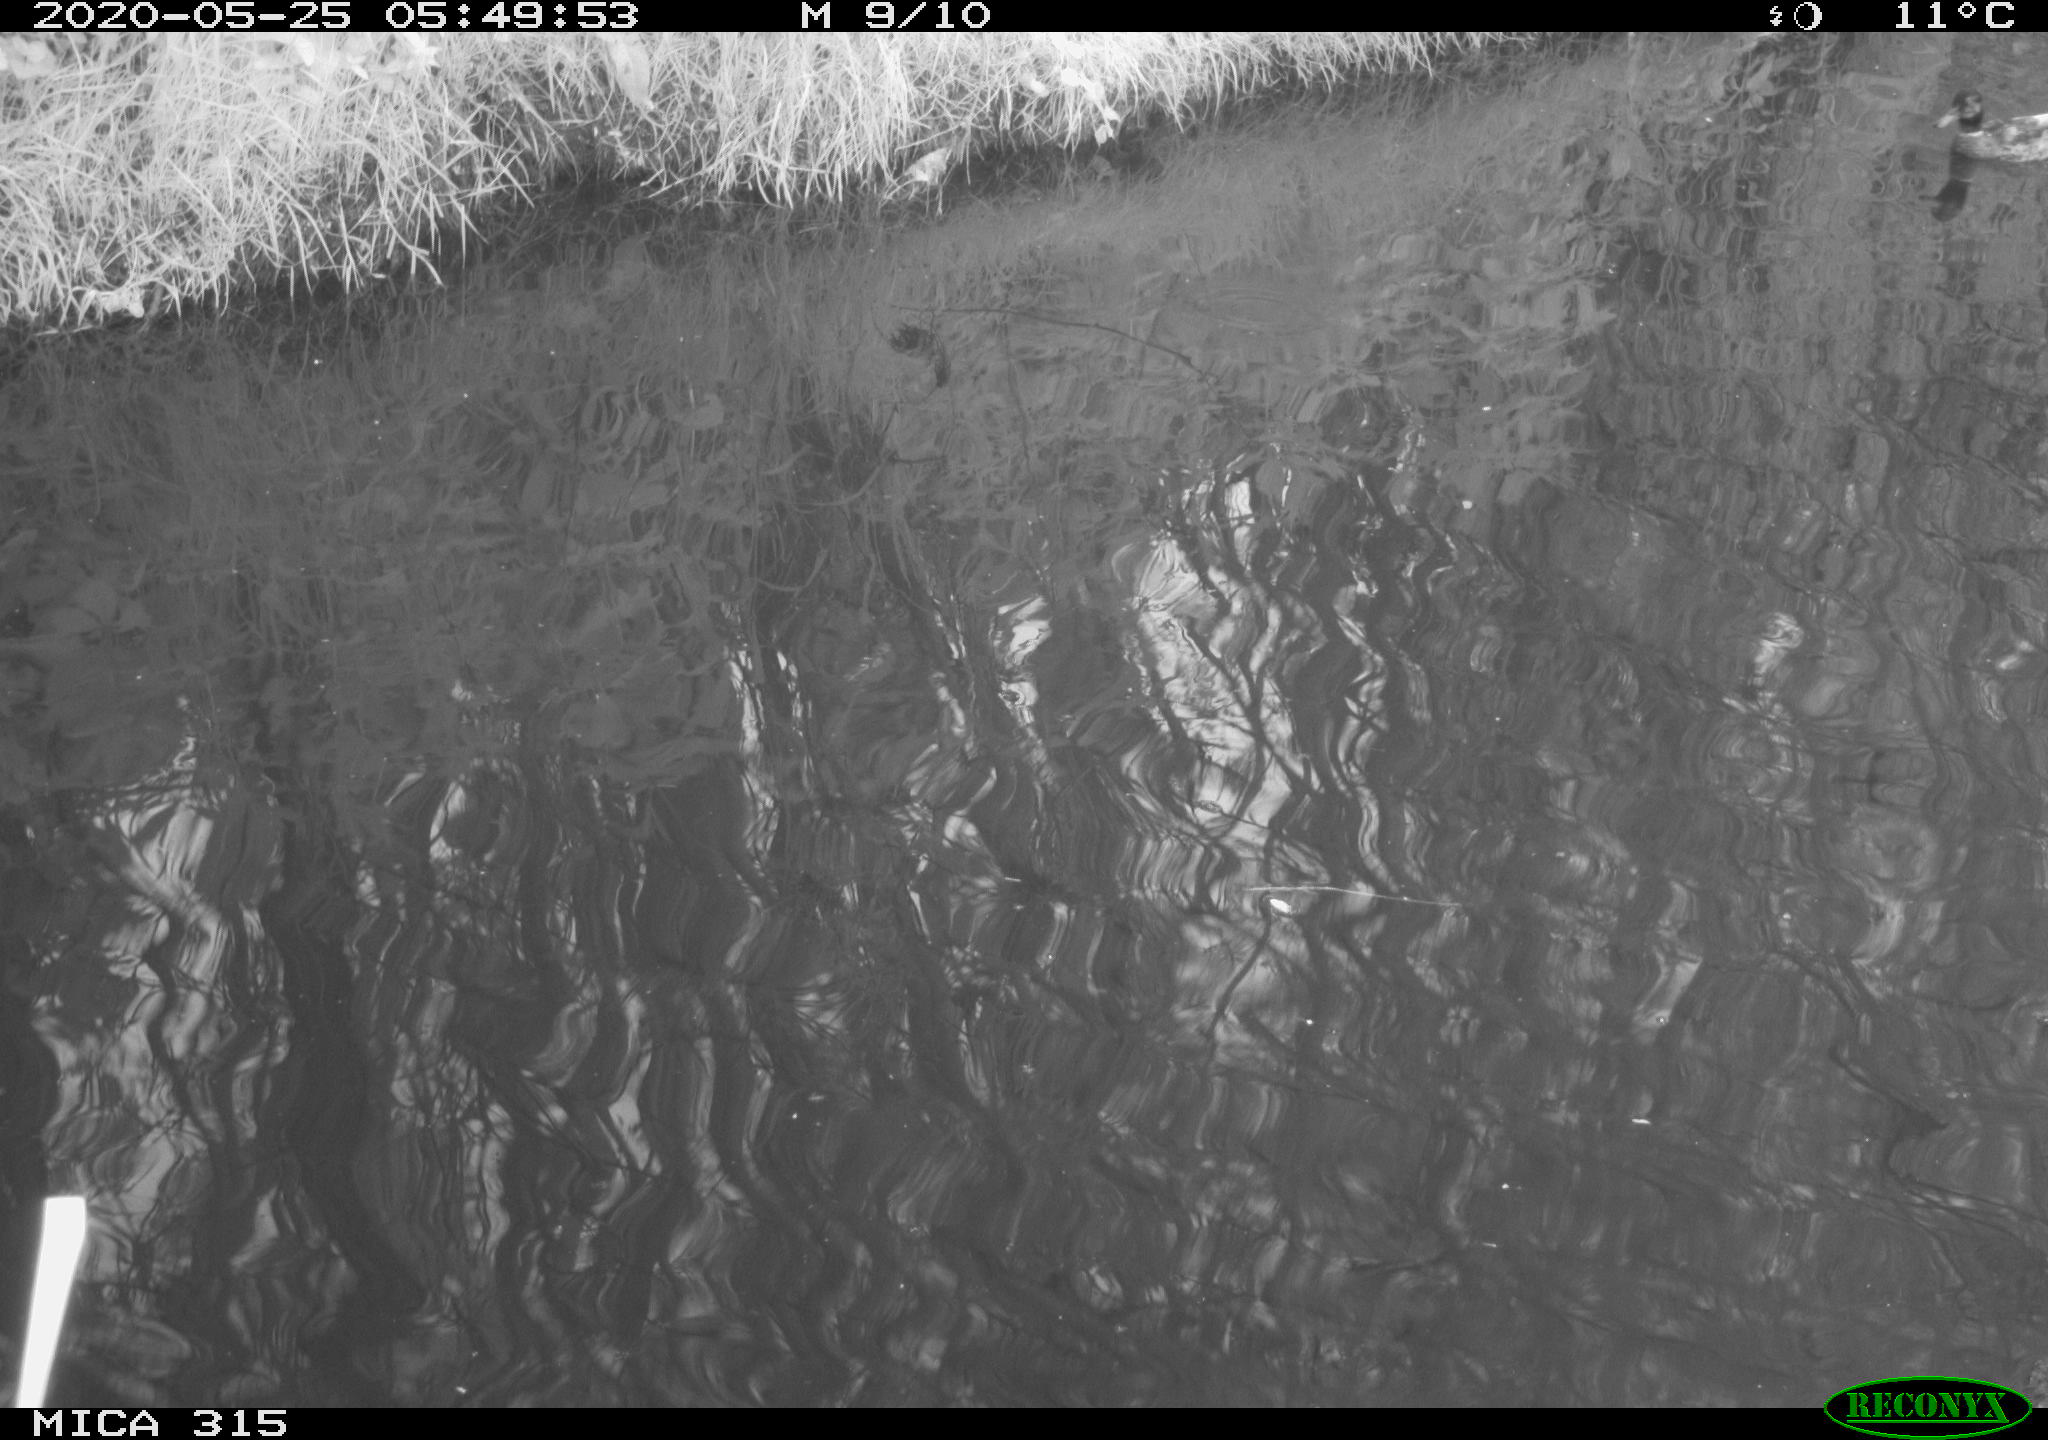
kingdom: Animalia
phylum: Chordata
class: Aves
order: Anseriformes
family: Anatidae
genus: Anas
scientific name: Anas platyrhynchos
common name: Mallard
